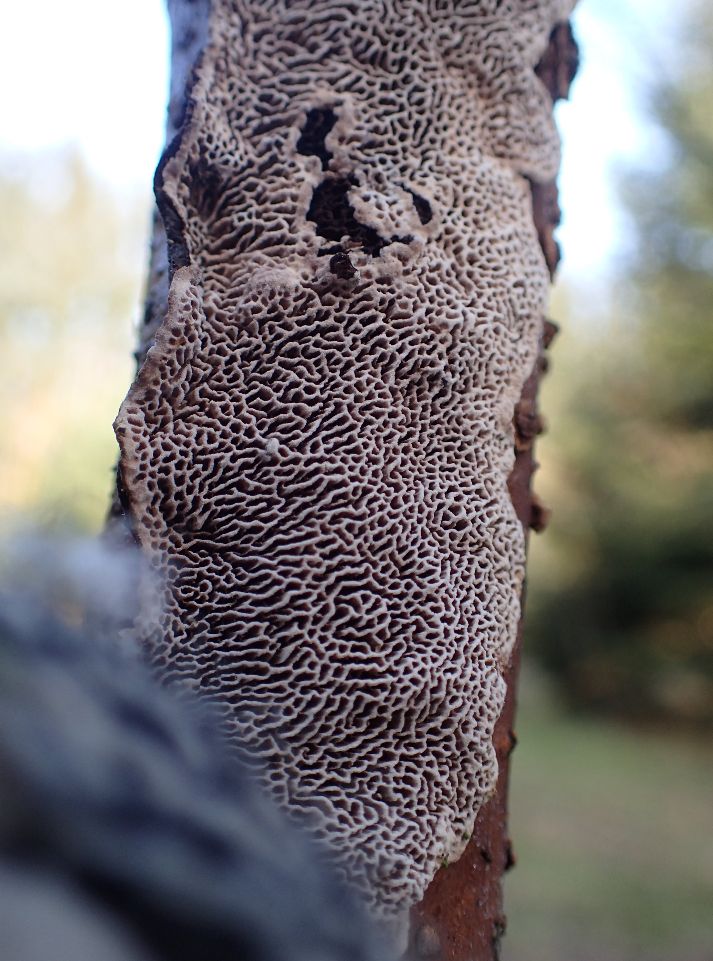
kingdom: Fungi
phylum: Basidiomycota
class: Agaricomycetes
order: Polyporales
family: Polyporaceae
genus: Podofomes
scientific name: Podofomes mollis
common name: blød begporesvamp
